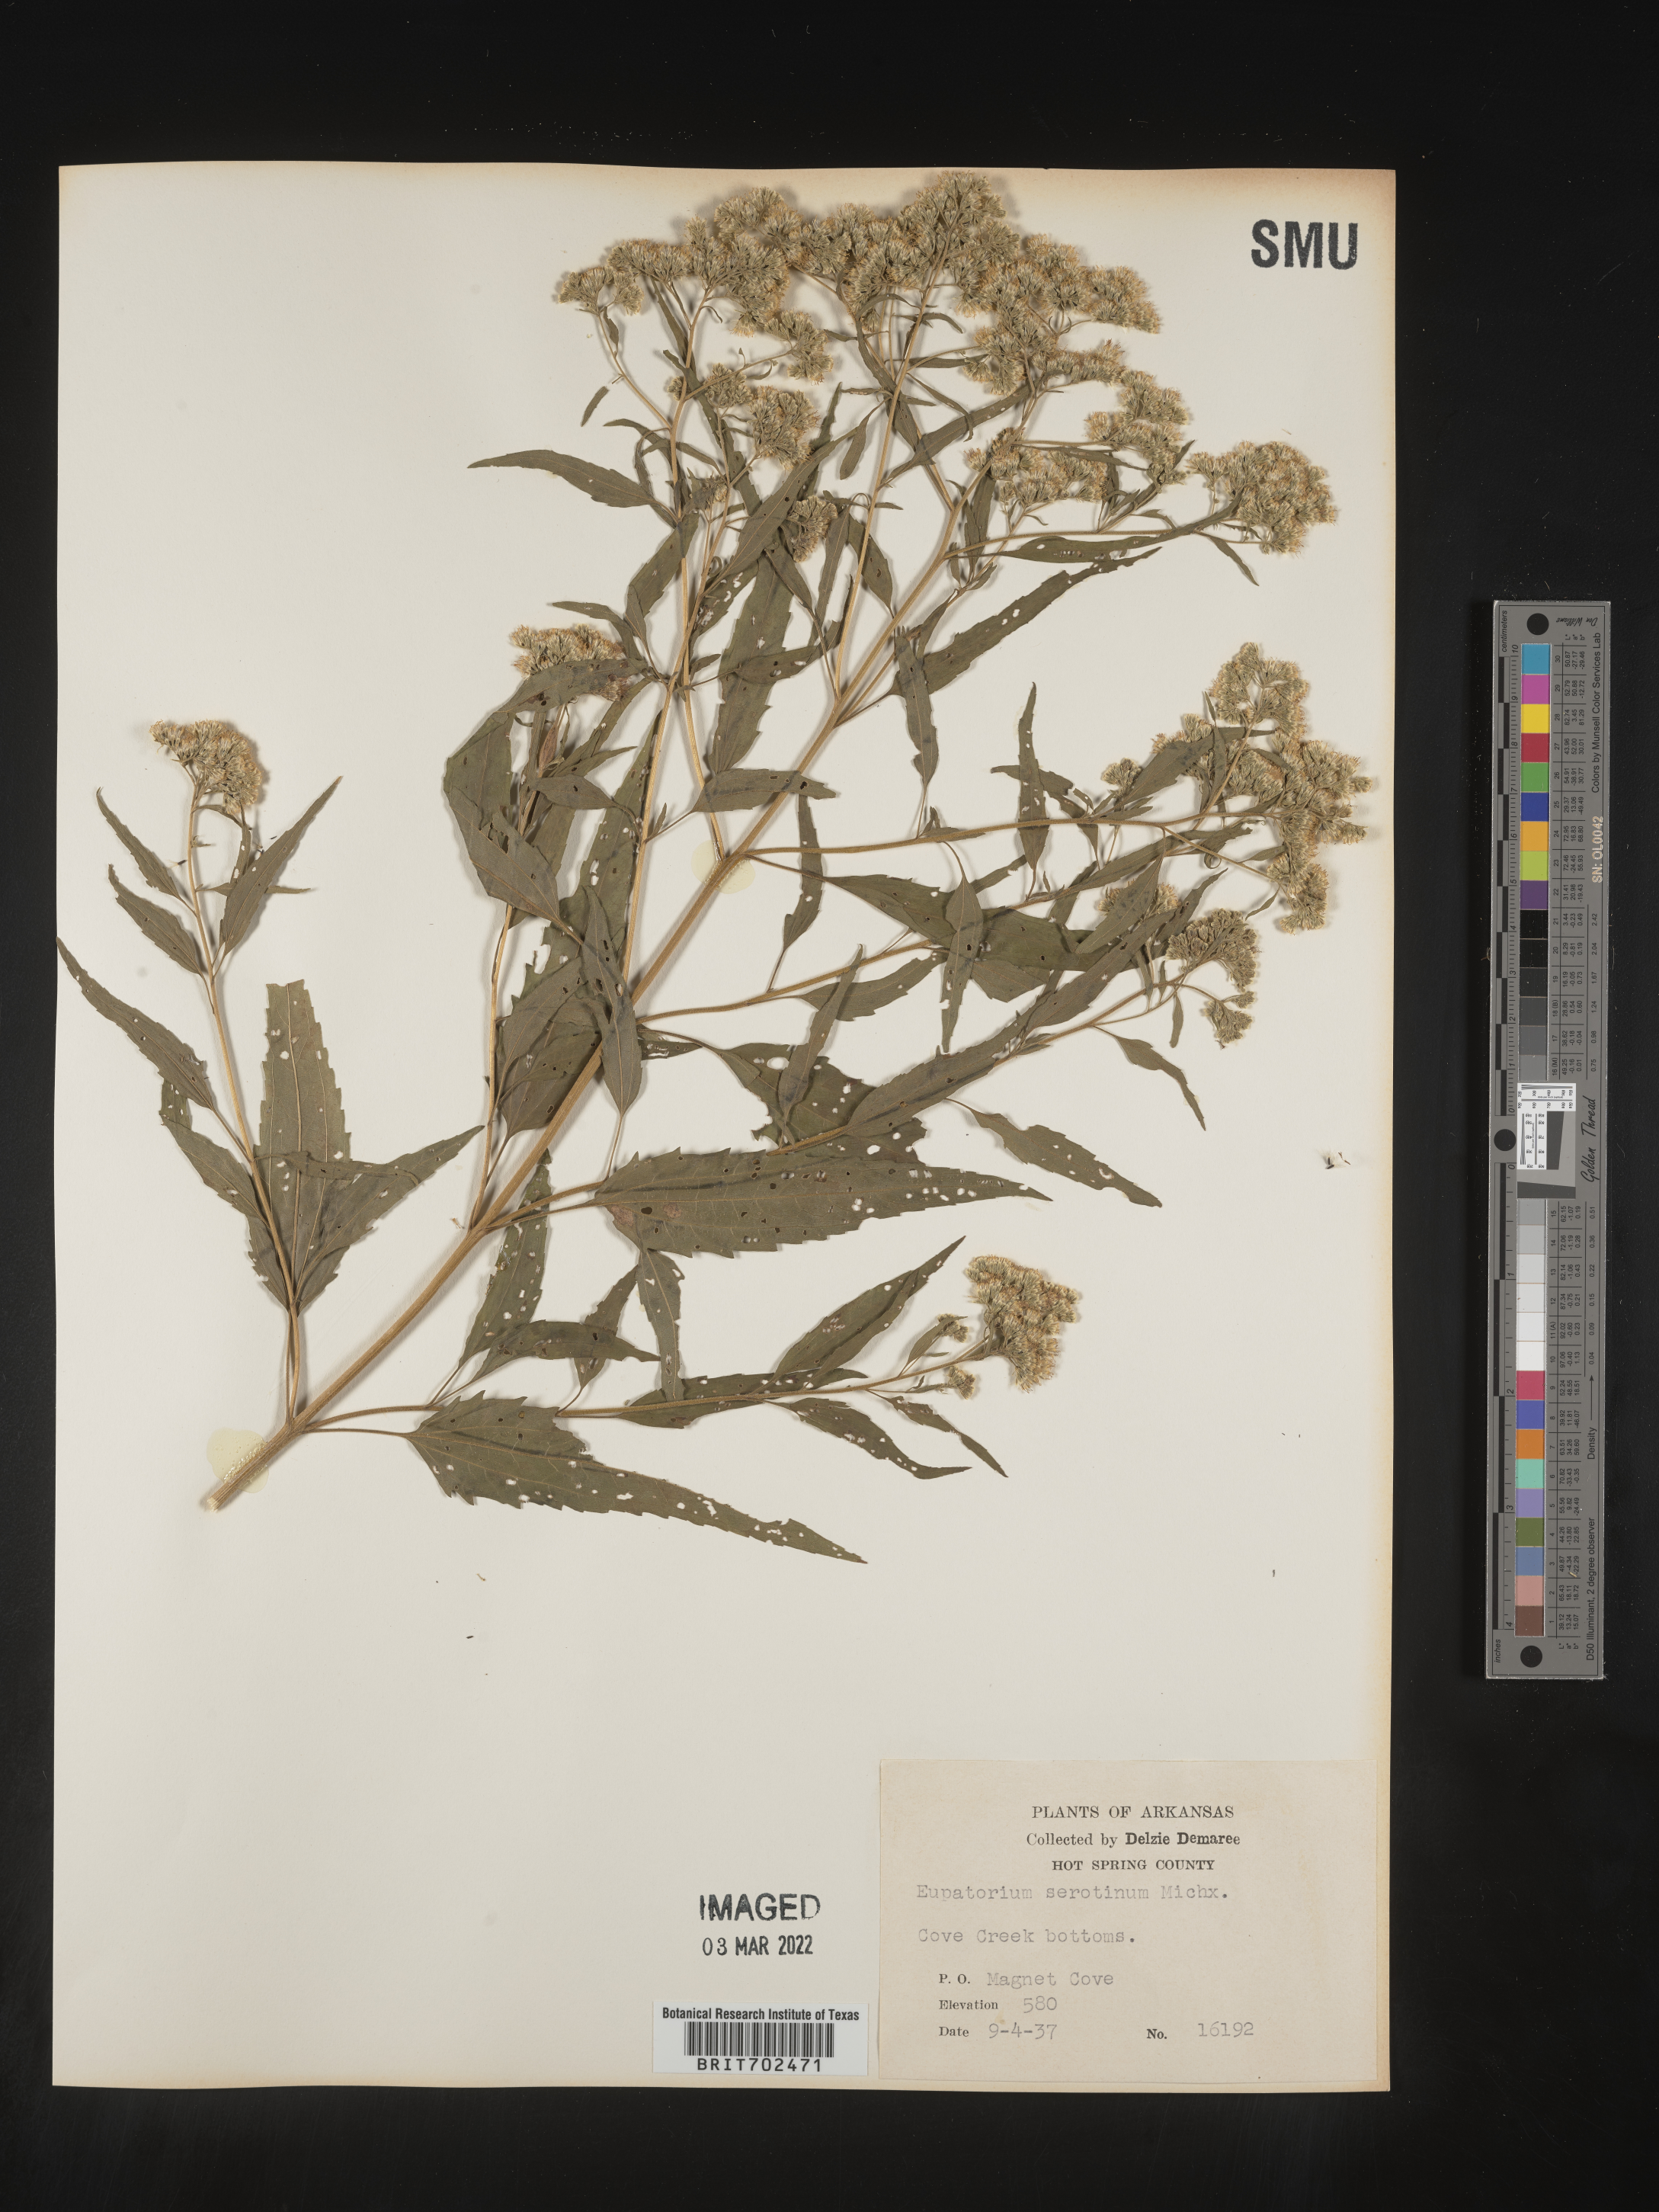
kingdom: Plantae
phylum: Tracheophyta
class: Magnoliopsida
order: Asterales
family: Asteraceae
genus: Eupatorium
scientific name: Eupatorium serotinum
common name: Late boneset
